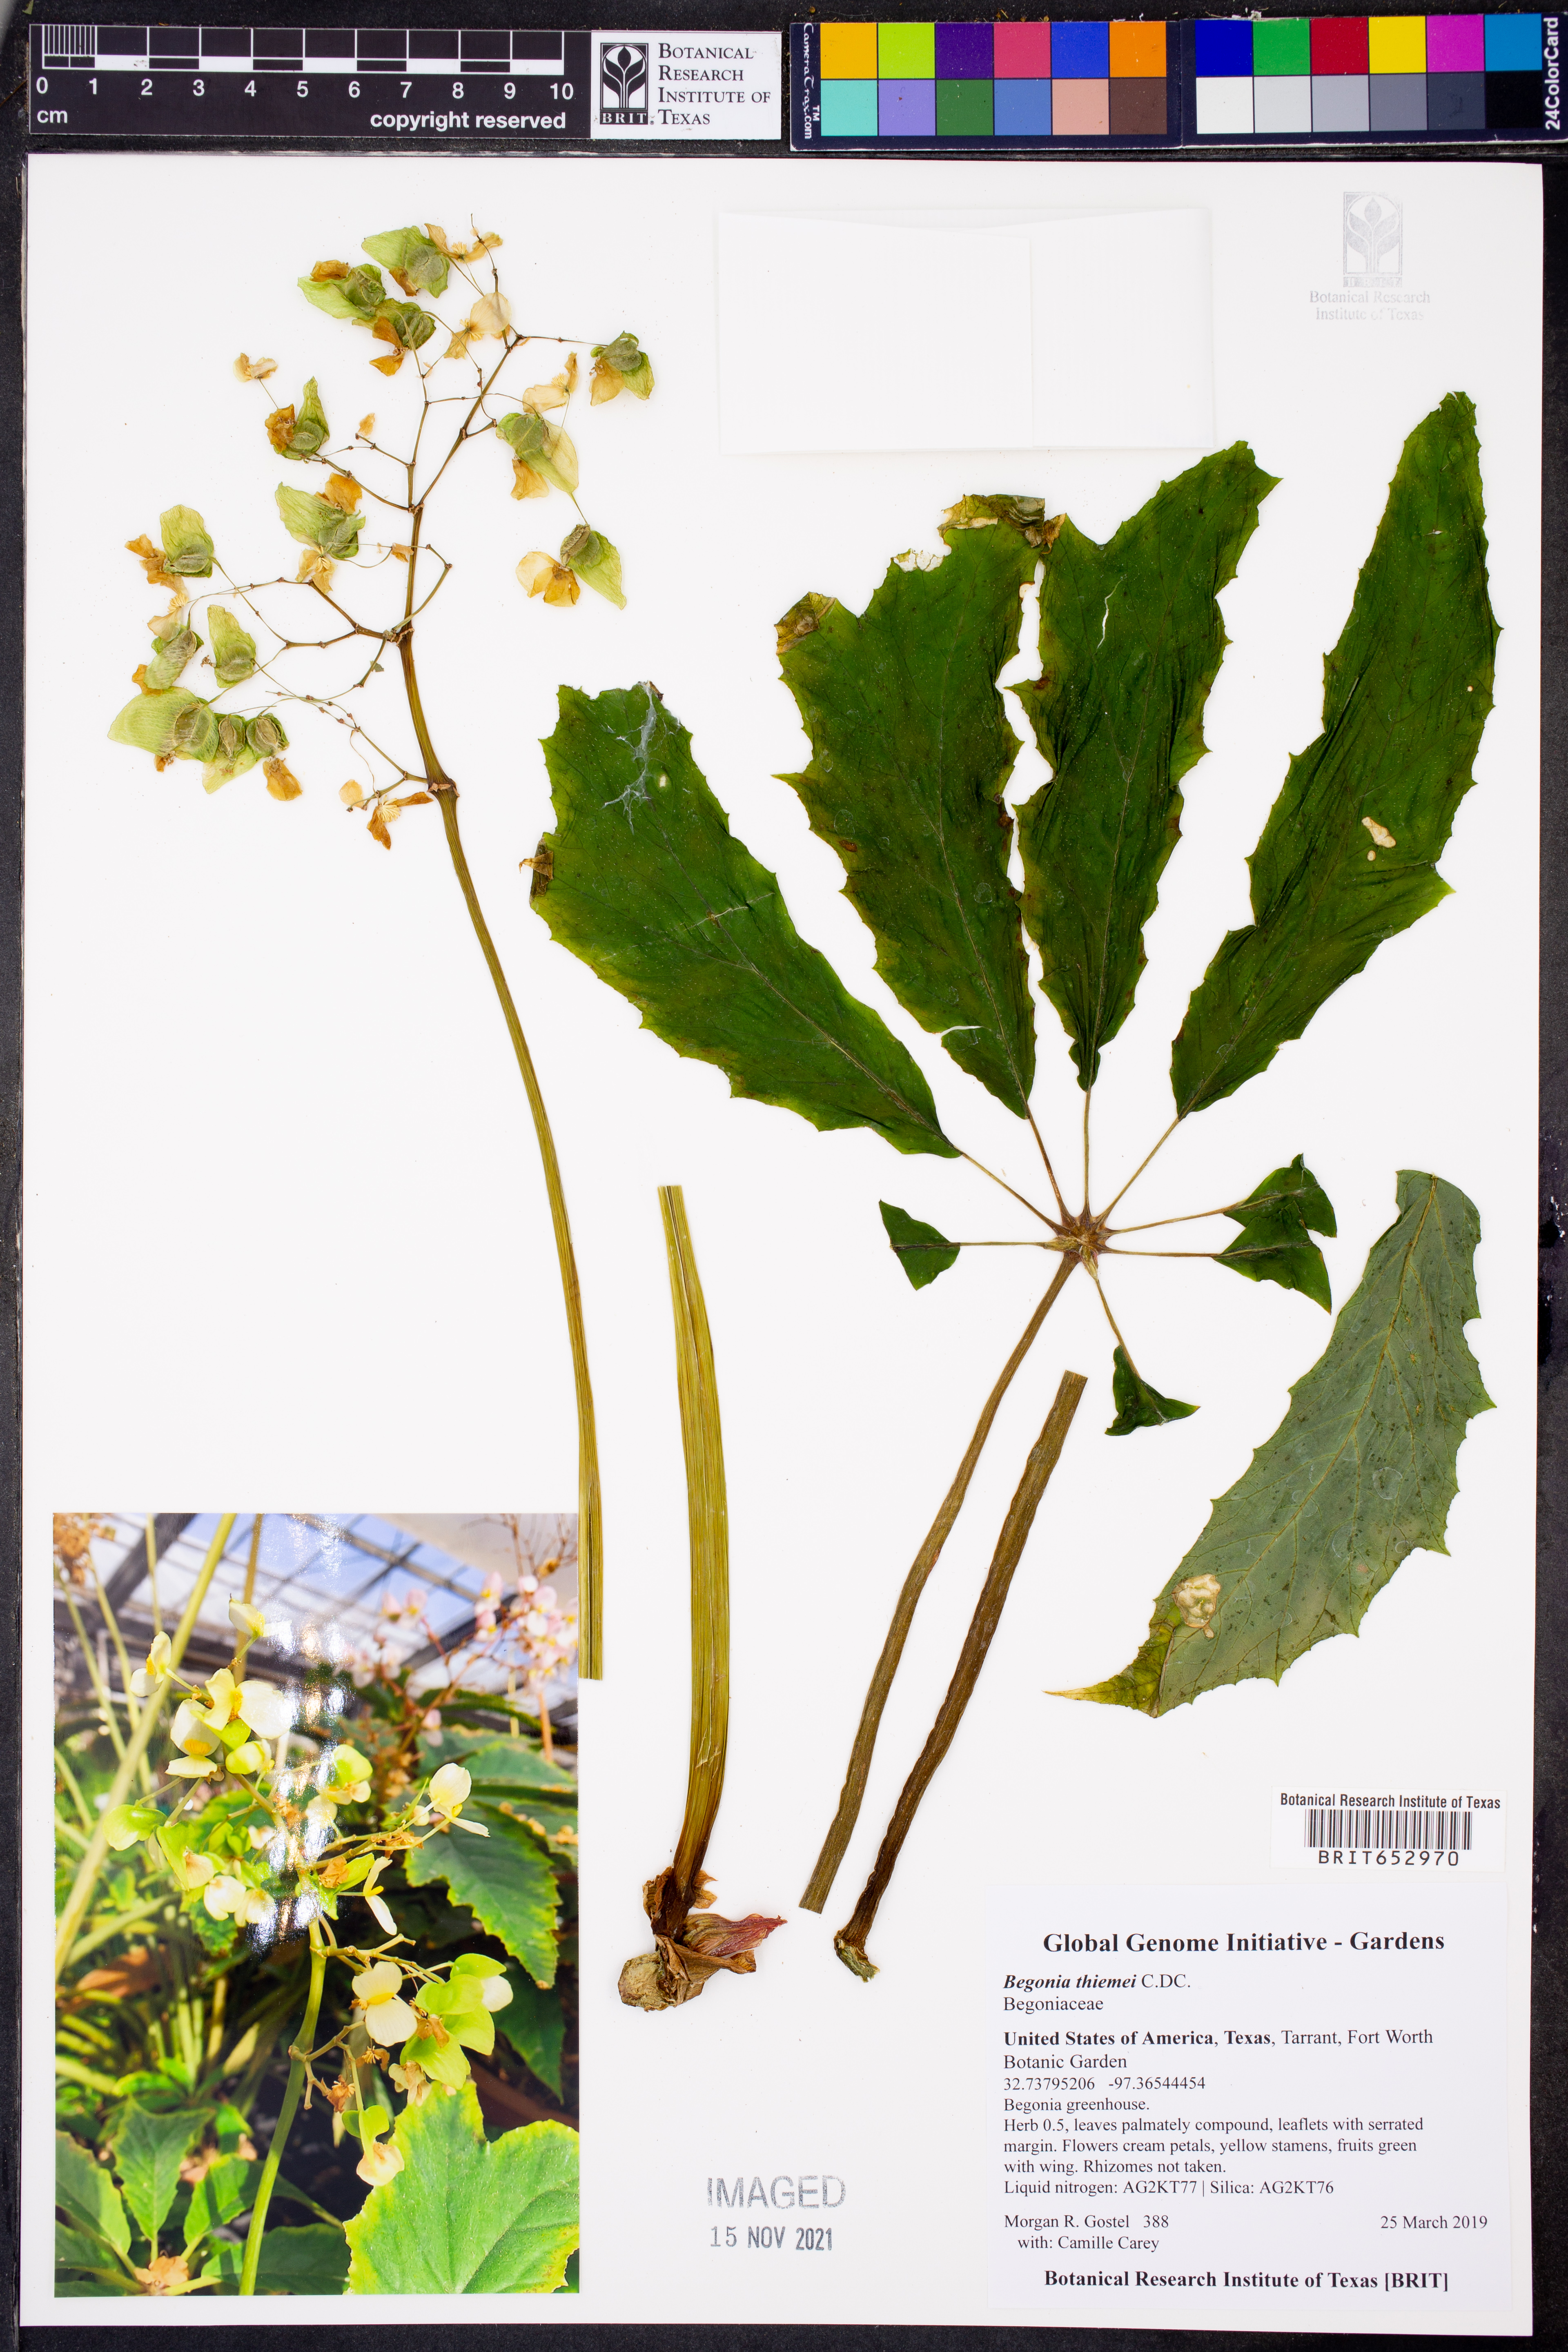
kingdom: Plantae
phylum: Tracheophyta
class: Magnoliopsida
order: Cucurbitales
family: Begoniaceae
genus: Begonia
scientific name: Begonia thiemei
